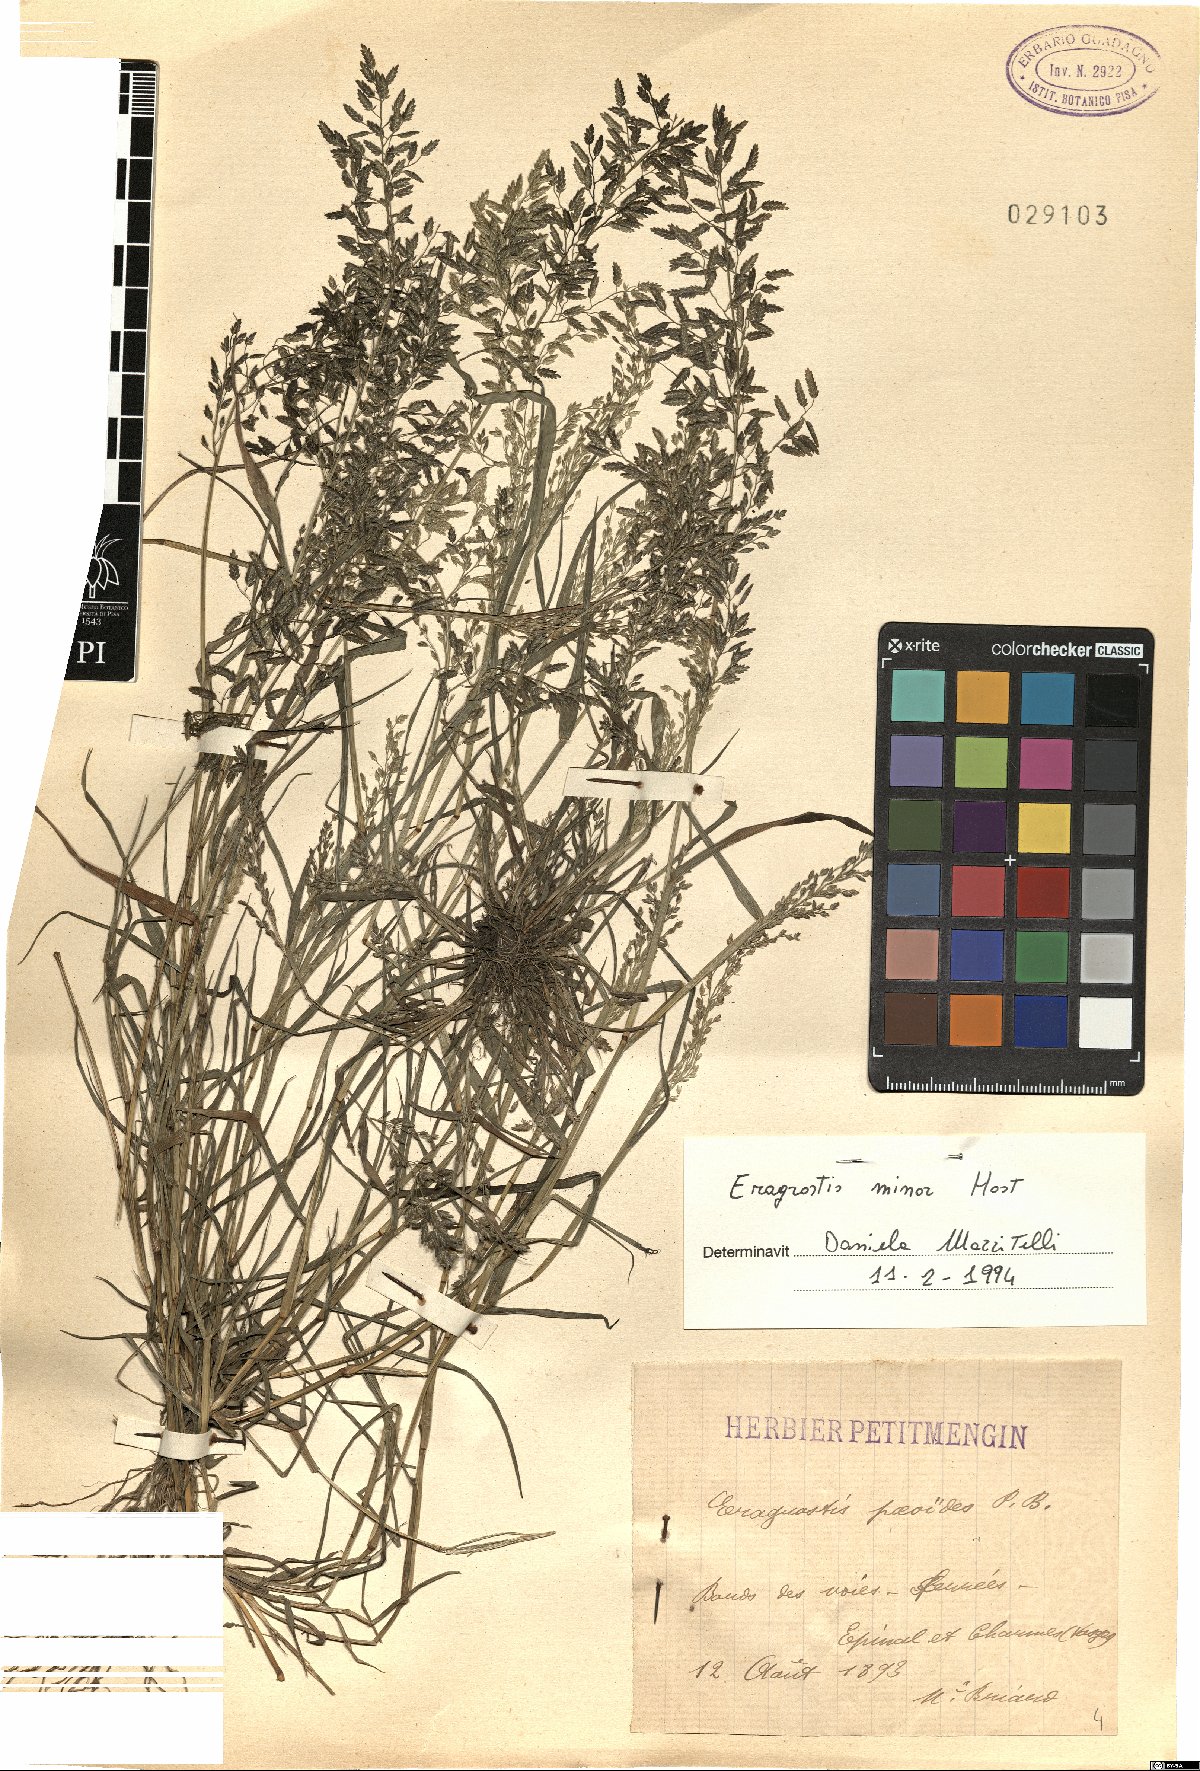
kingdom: Plantae
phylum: Tracheophyta
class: Liliopsida
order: Poales
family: Poaceae
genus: Eragrostis
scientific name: Eragrostis minor
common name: Small love-grass
